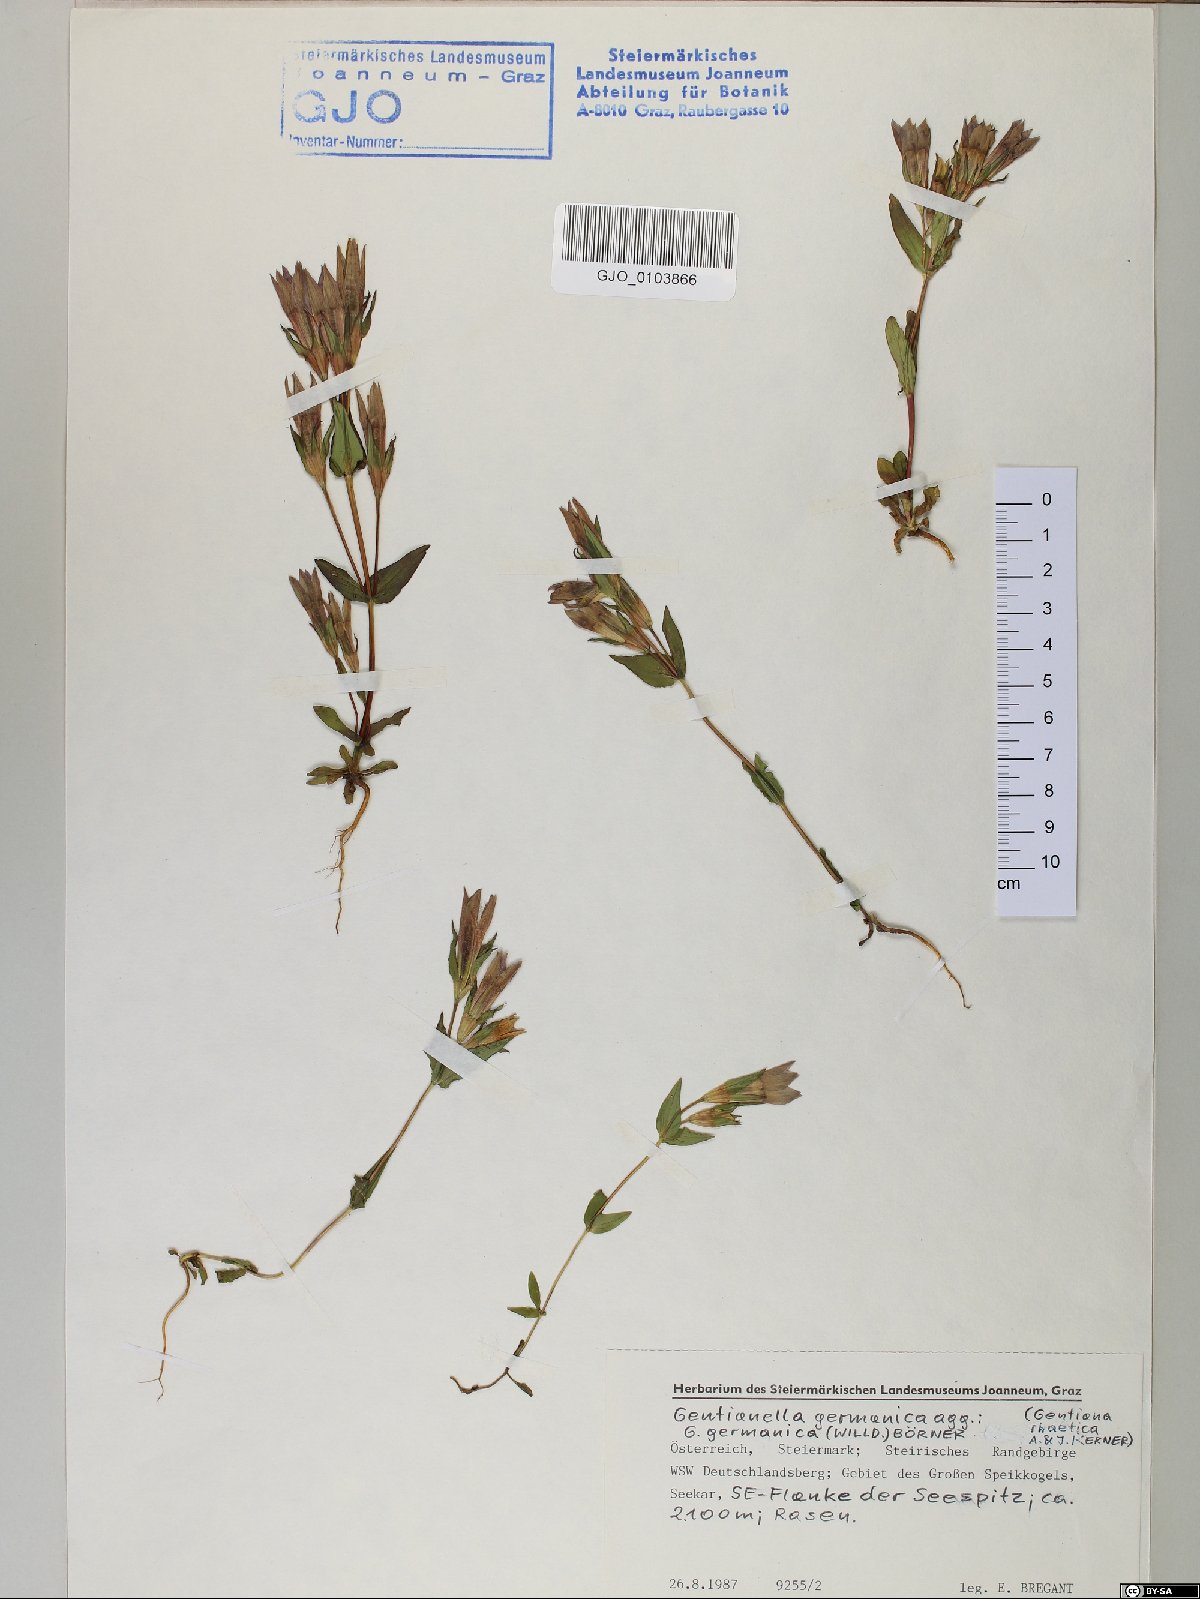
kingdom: Plantae
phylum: Tracheophyta
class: Magnoliopsida
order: Gentianales
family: Gentianaceae
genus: Gentianella
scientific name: Gentianella rhaetica
